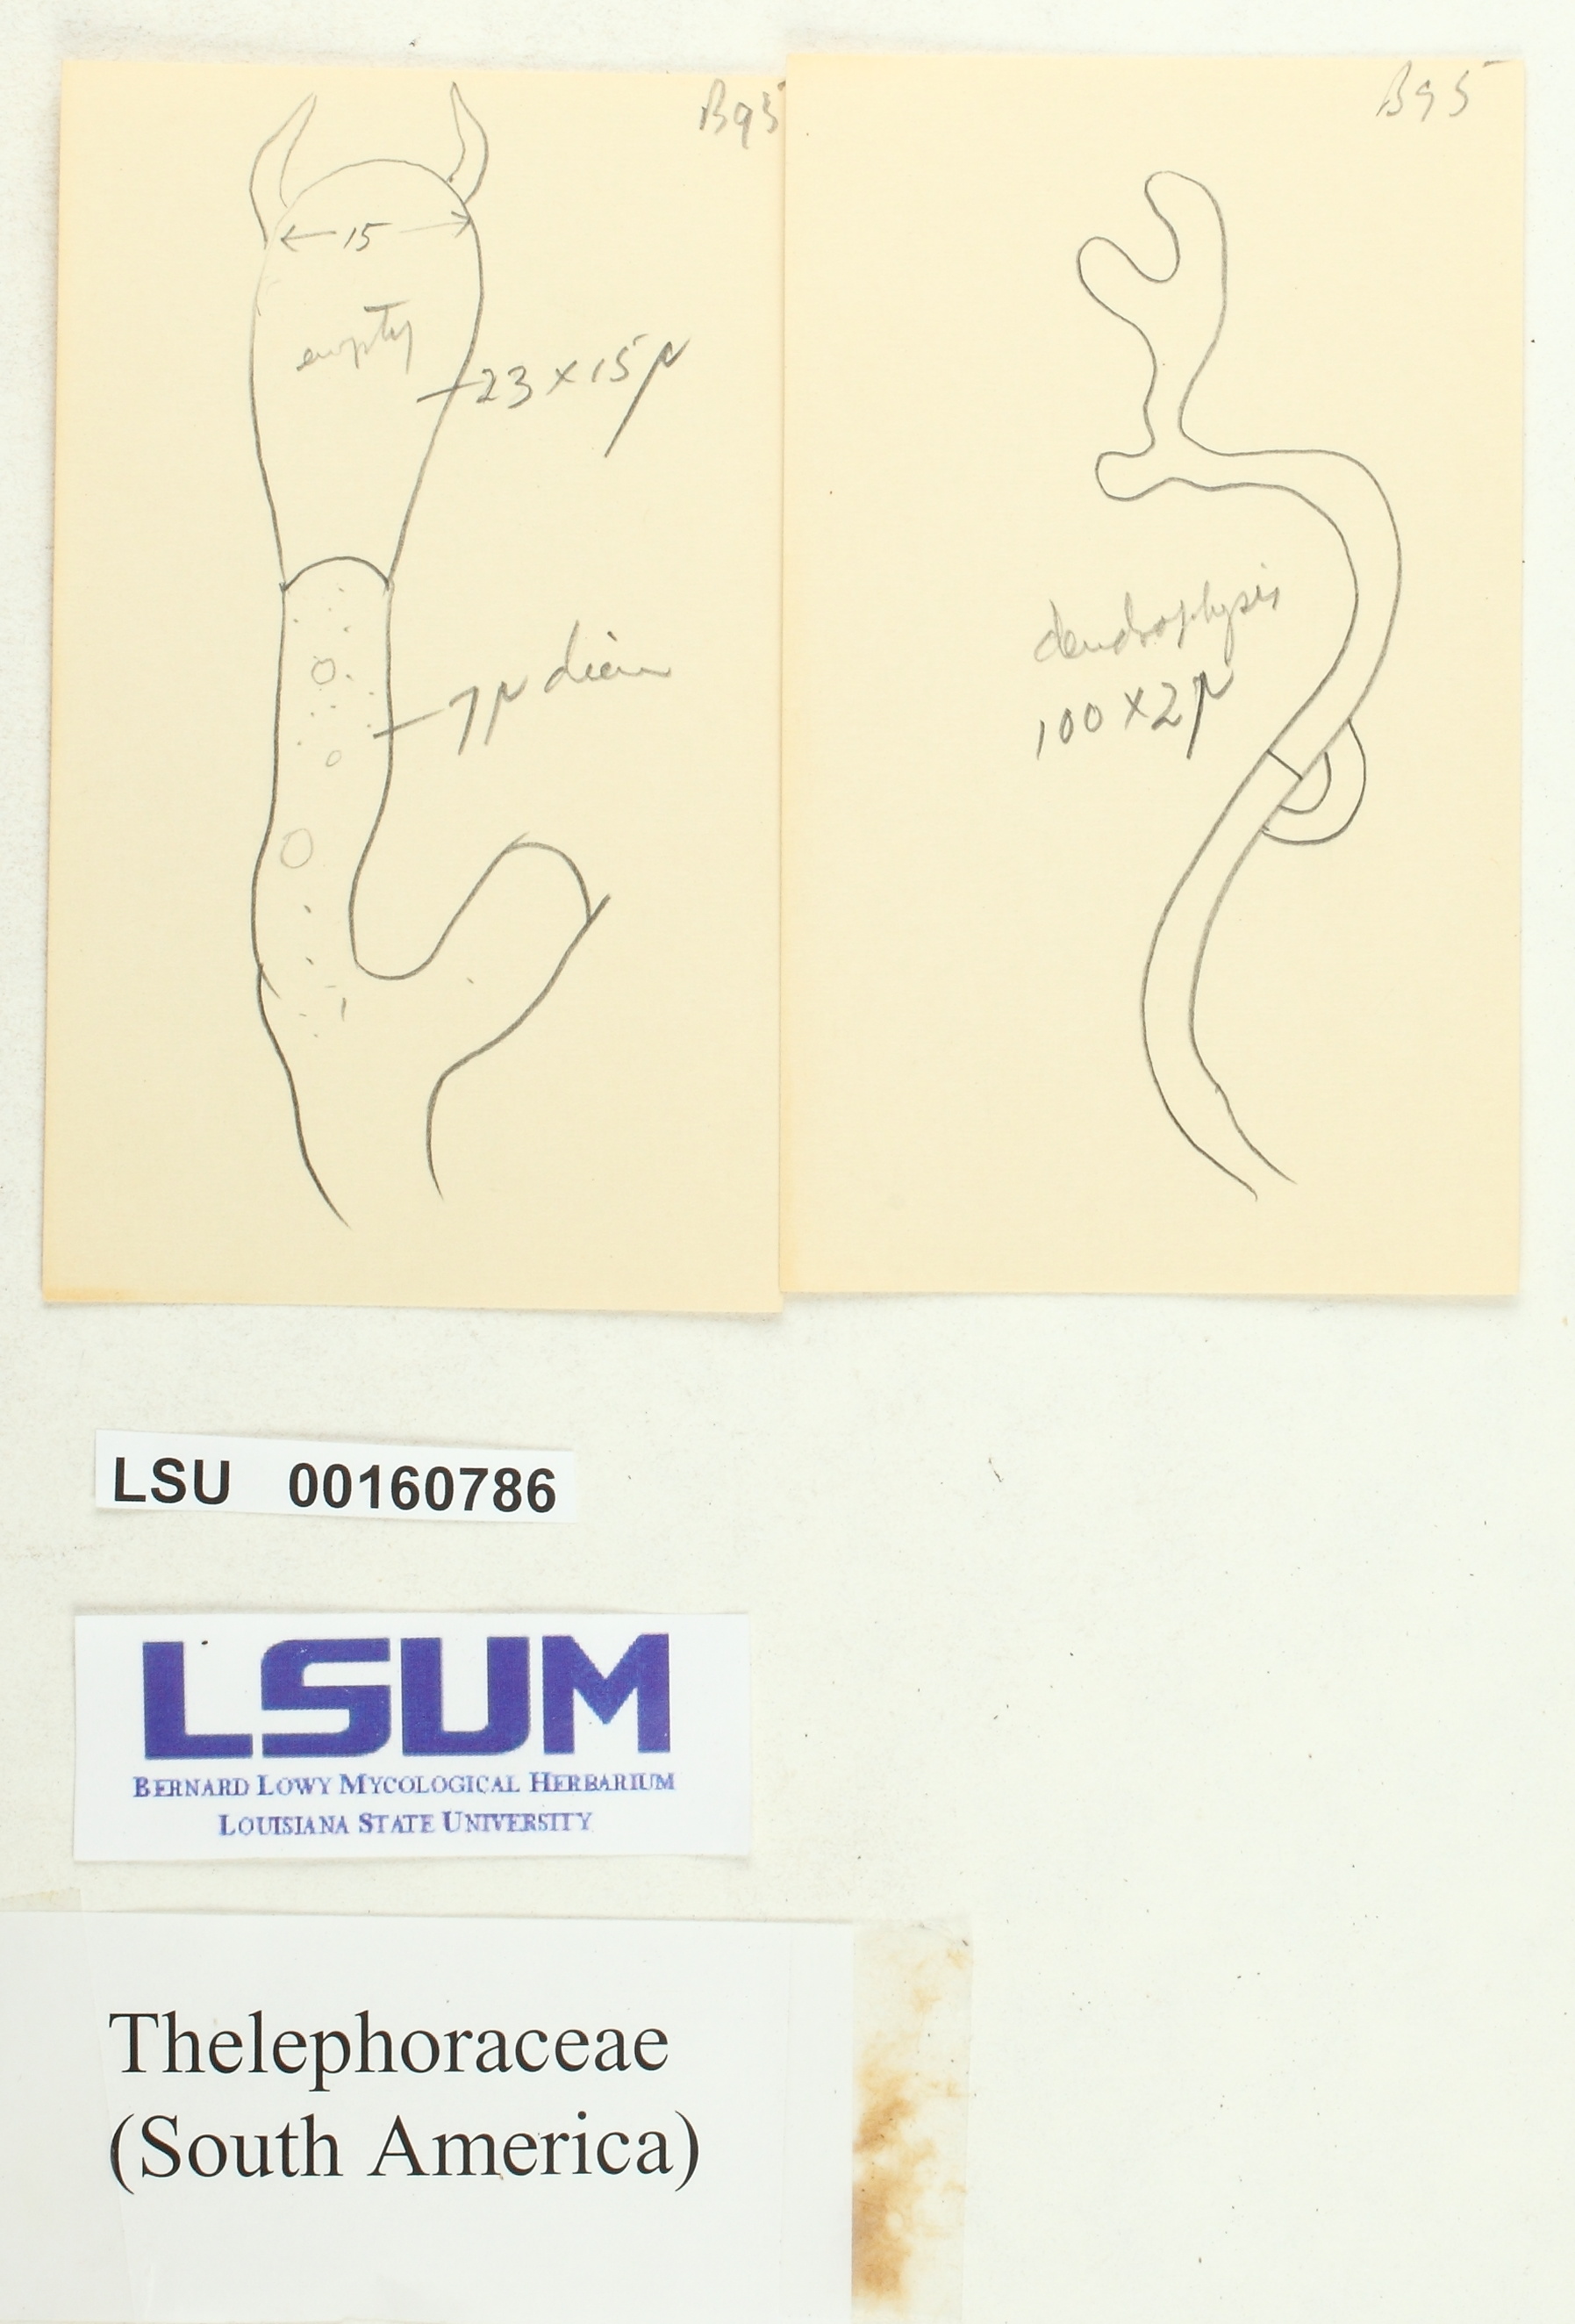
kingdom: Fungi
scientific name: Fungi
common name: Fungi
